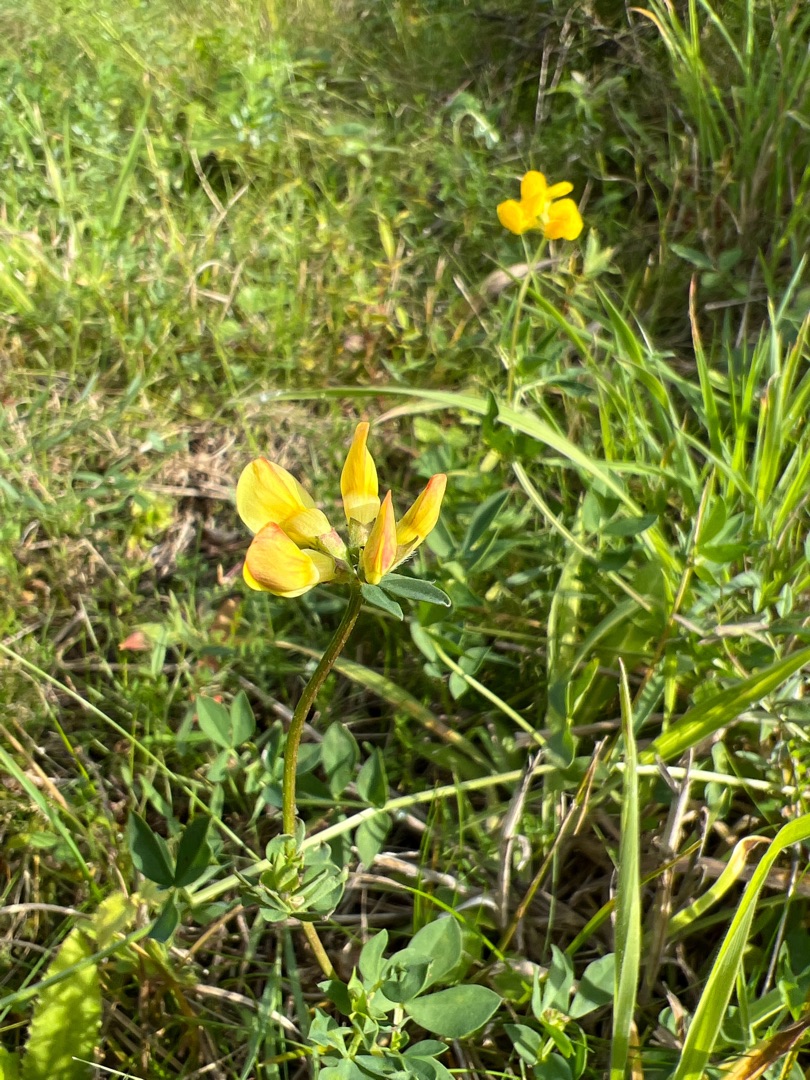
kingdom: Plantae
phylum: Tracheophyta
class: Magnoliopsida
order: Fabales
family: Fabaceae
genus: Lotus
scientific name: Lotus corniculatus
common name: Almindelig kællingetand
